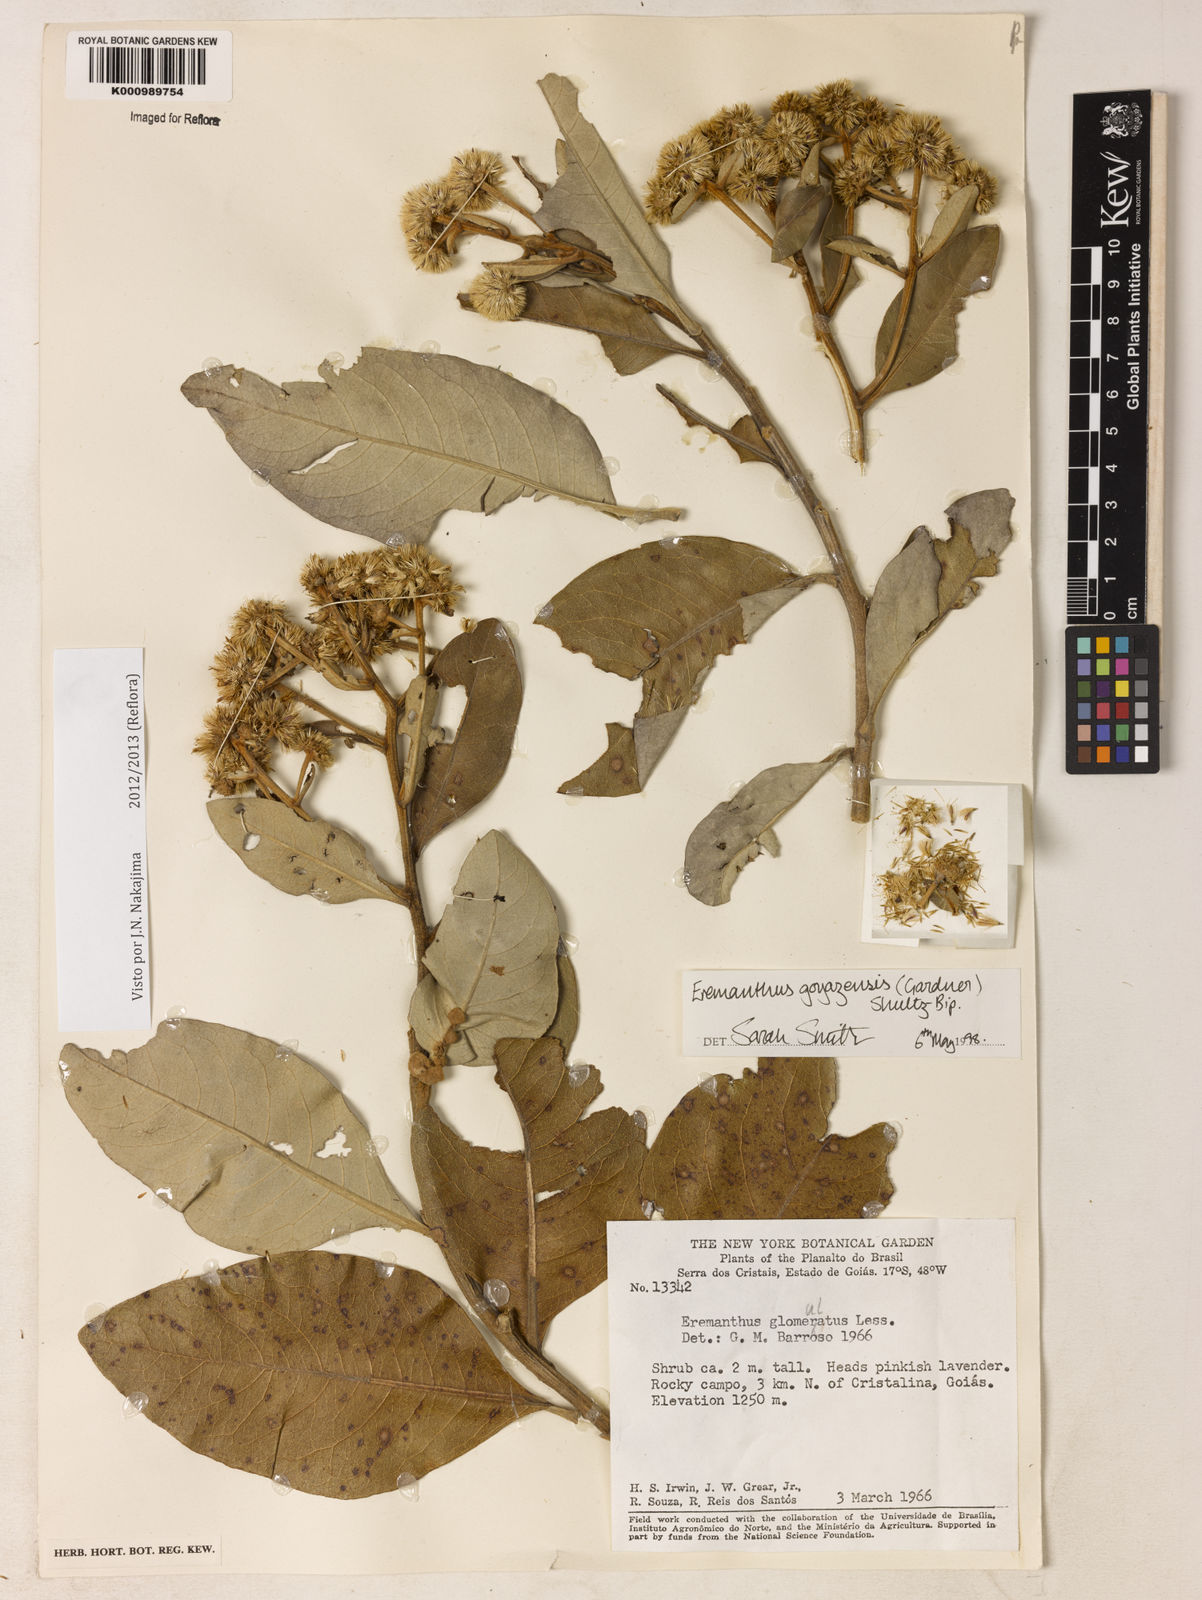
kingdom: Plantae
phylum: Tracheophyta
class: Magnoliopsida
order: Asterales
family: Asteraceae
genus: Eremanthus
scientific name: Eremanthus goyazensis
